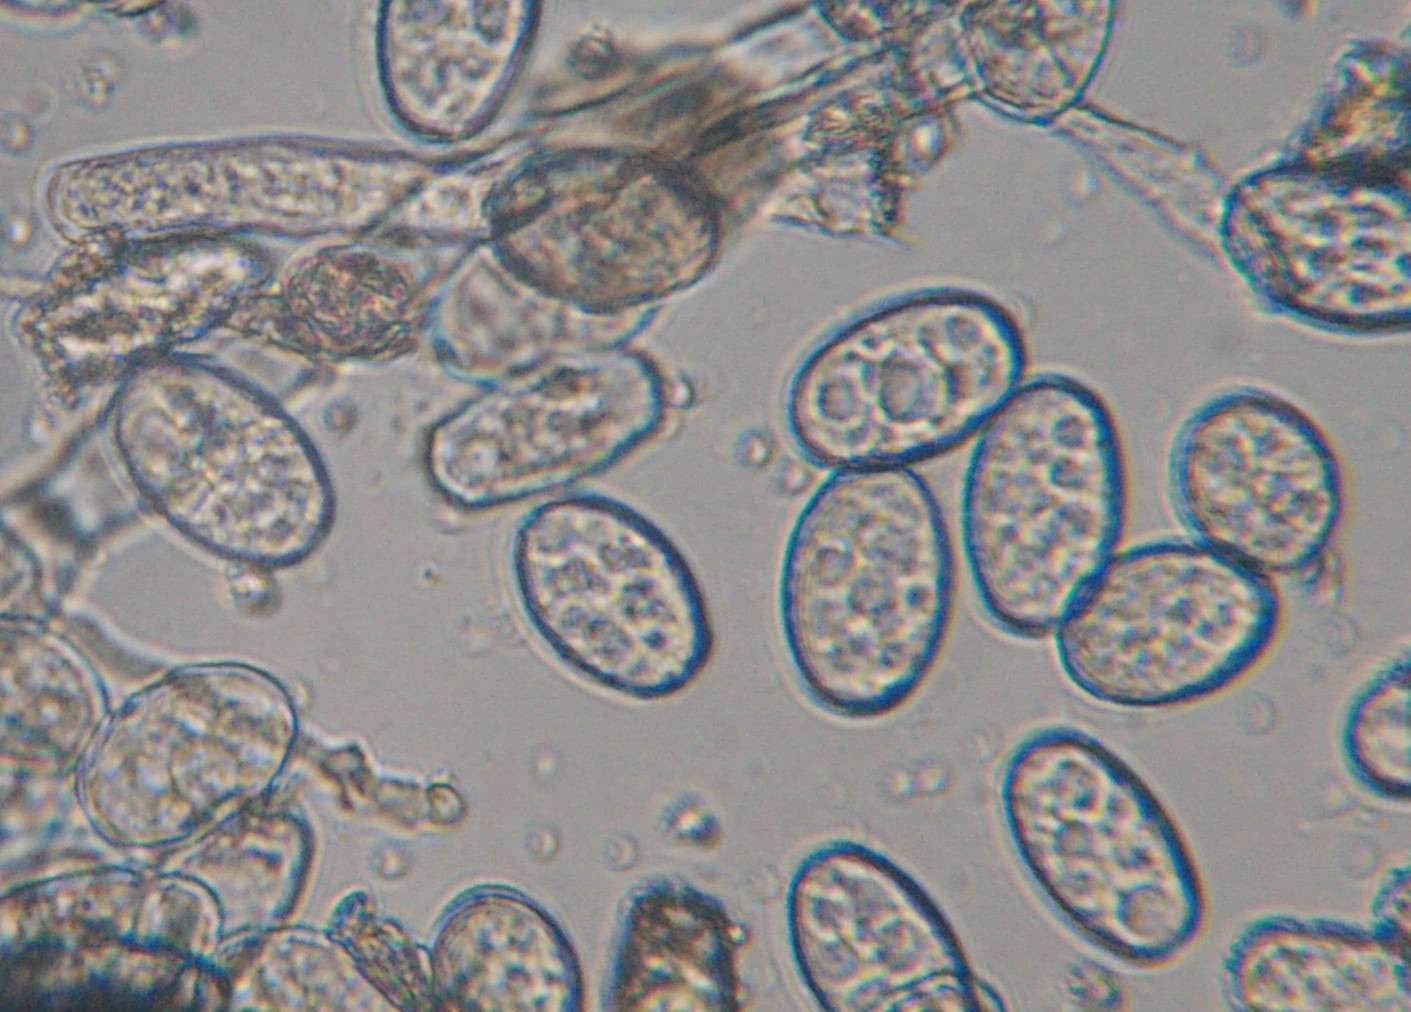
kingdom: Fungi
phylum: Ascomycota
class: Leotiomycetes
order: Helotiales
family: Erysiphaceae
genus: Golovinomyces
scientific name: Golovinomyces macrocarpus
